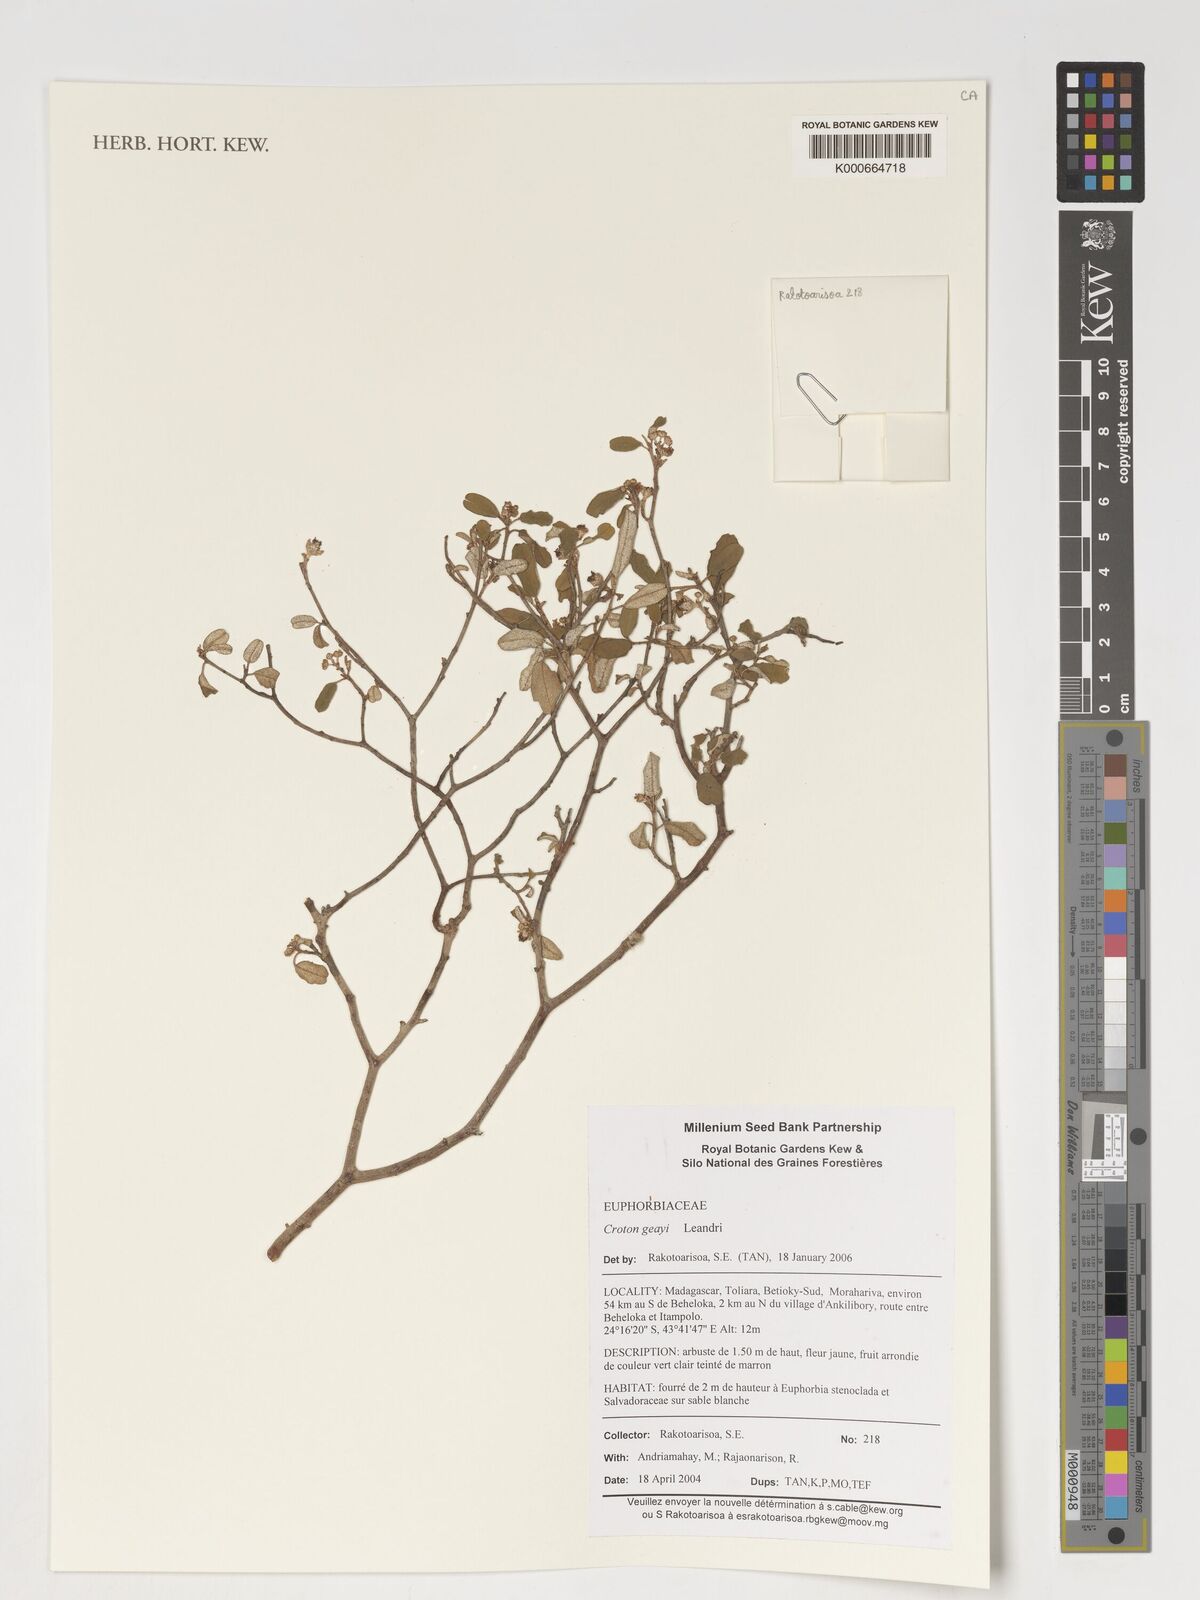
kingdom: Plantae
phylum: Tracheophyta
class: Magnoliopsida
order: Malpighiales
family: Euphorbiaceae
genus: Croton
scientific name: Croton geayi
